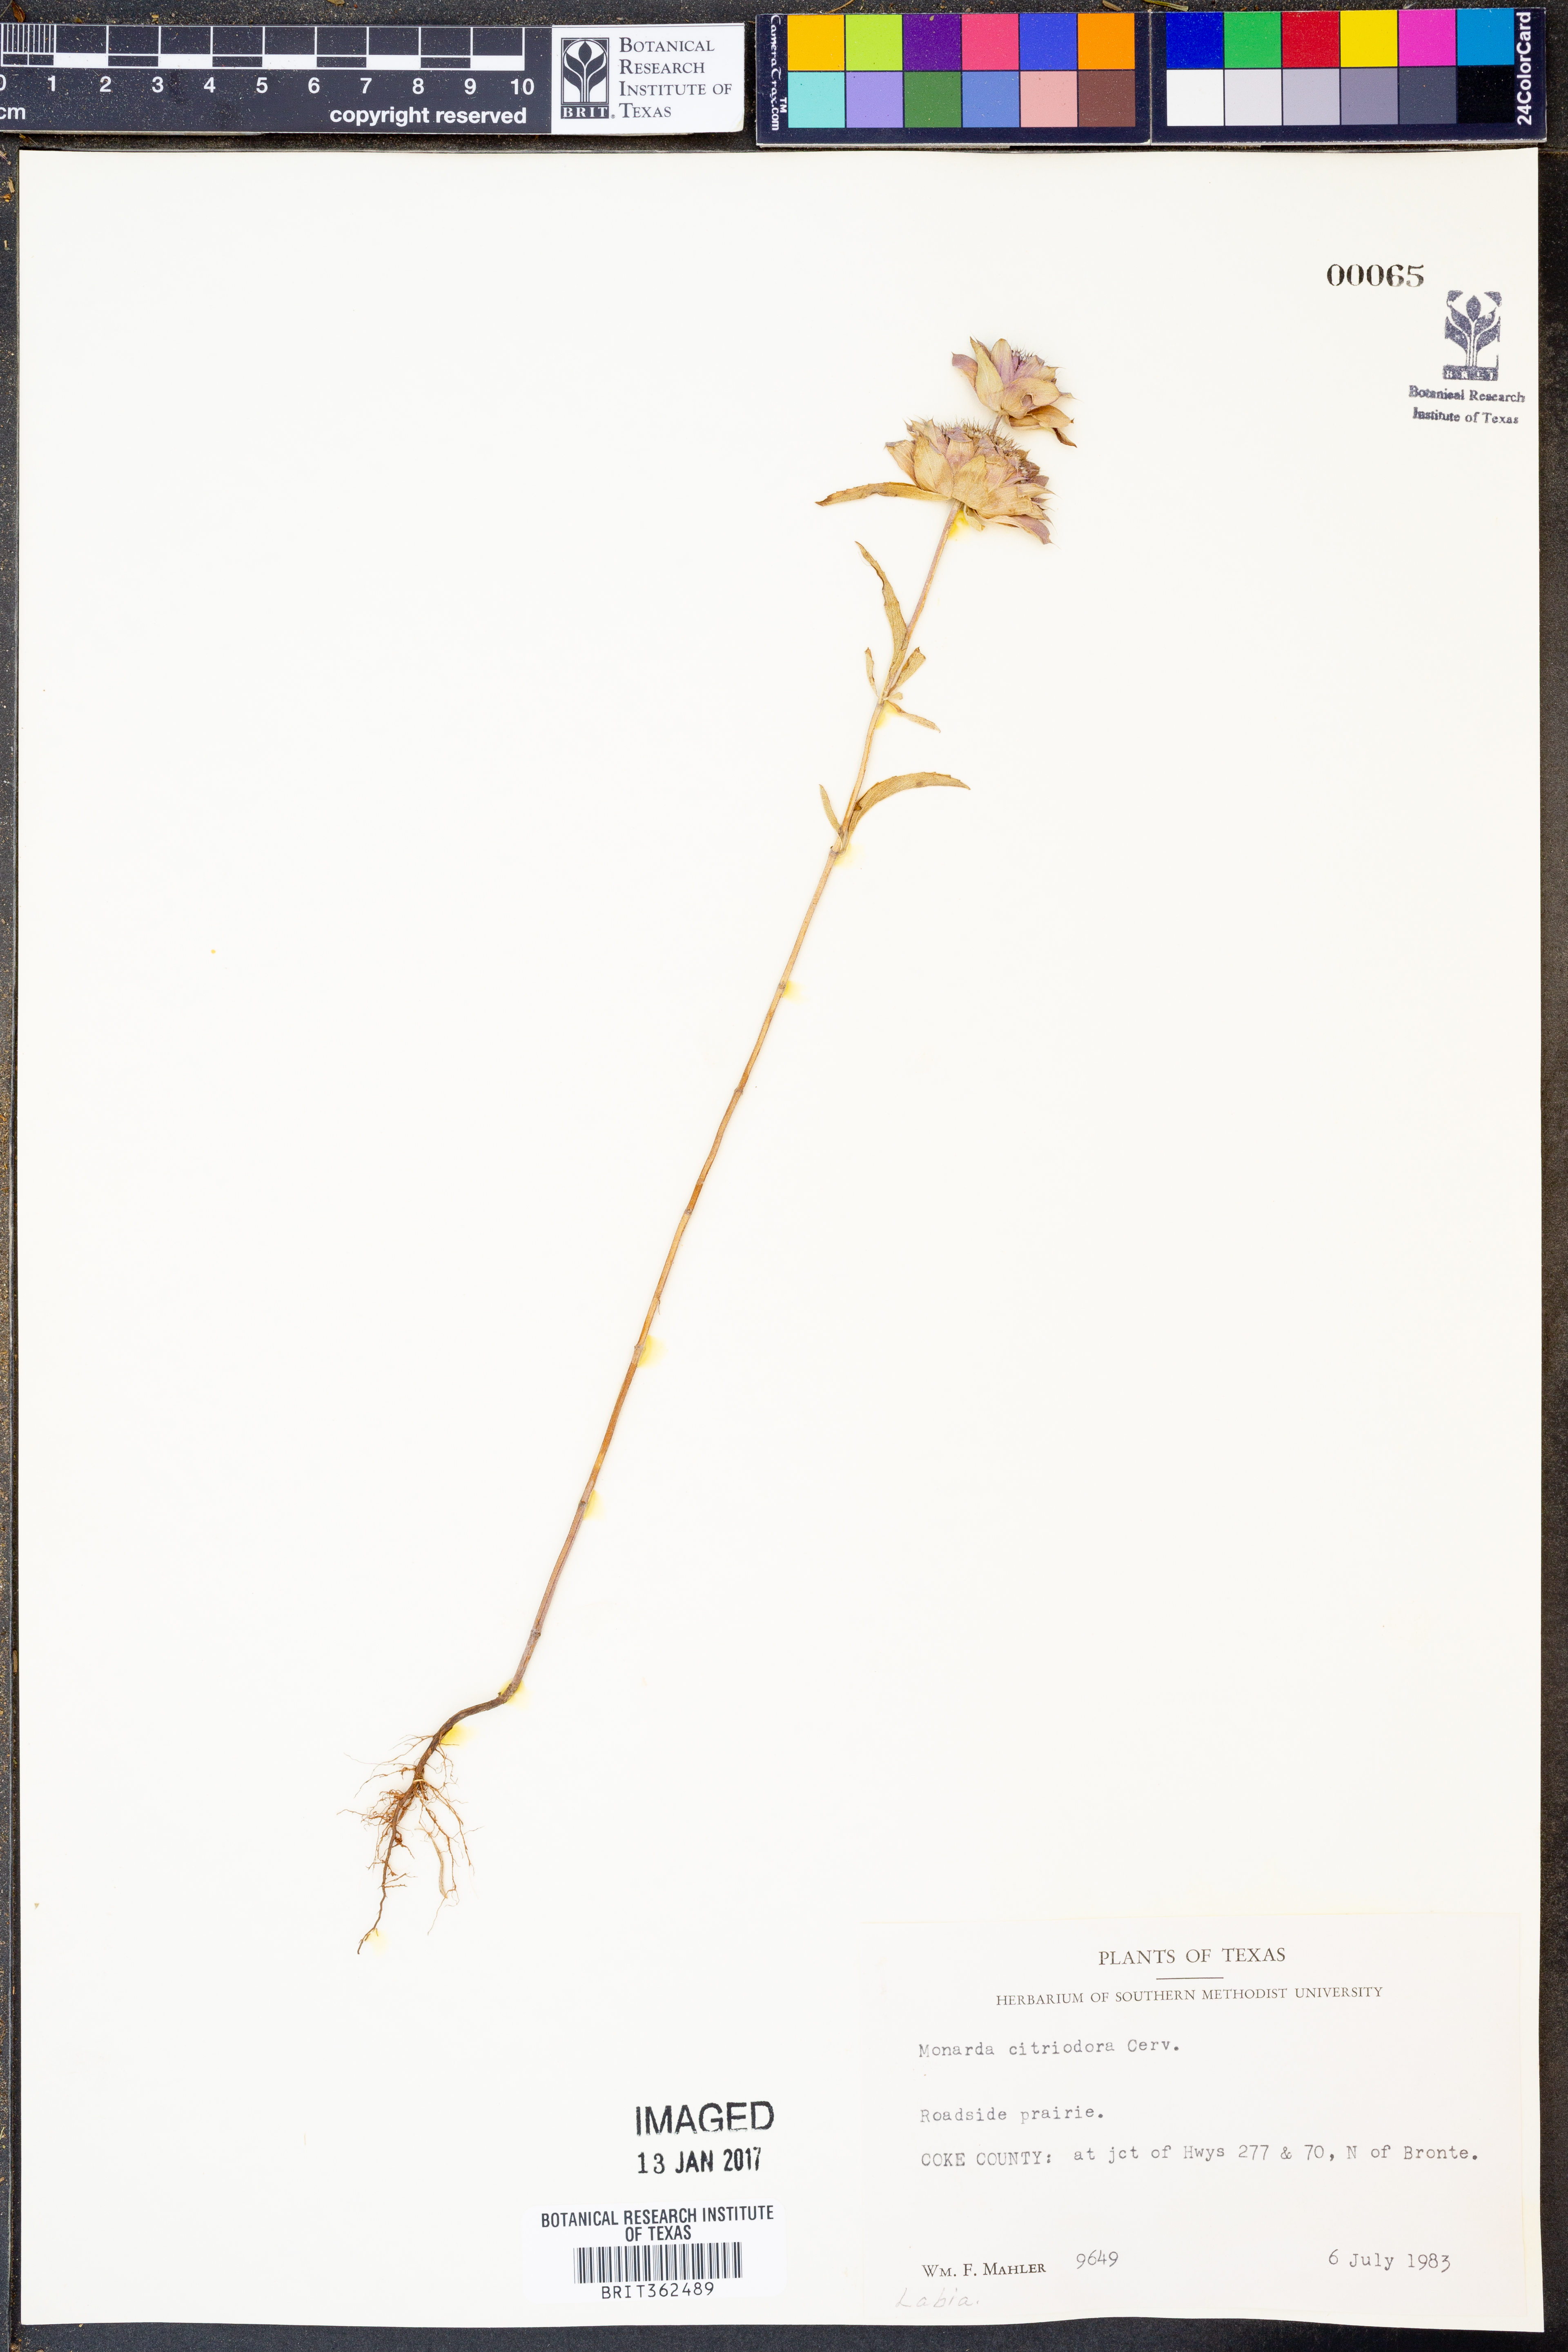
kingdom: Plantae
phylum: Tracheophyta
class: Magnoliopsida
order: Lamiales
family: Lamiaceae
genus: Monarda
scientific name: Monarda citriodora
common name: Lemon beebalm
